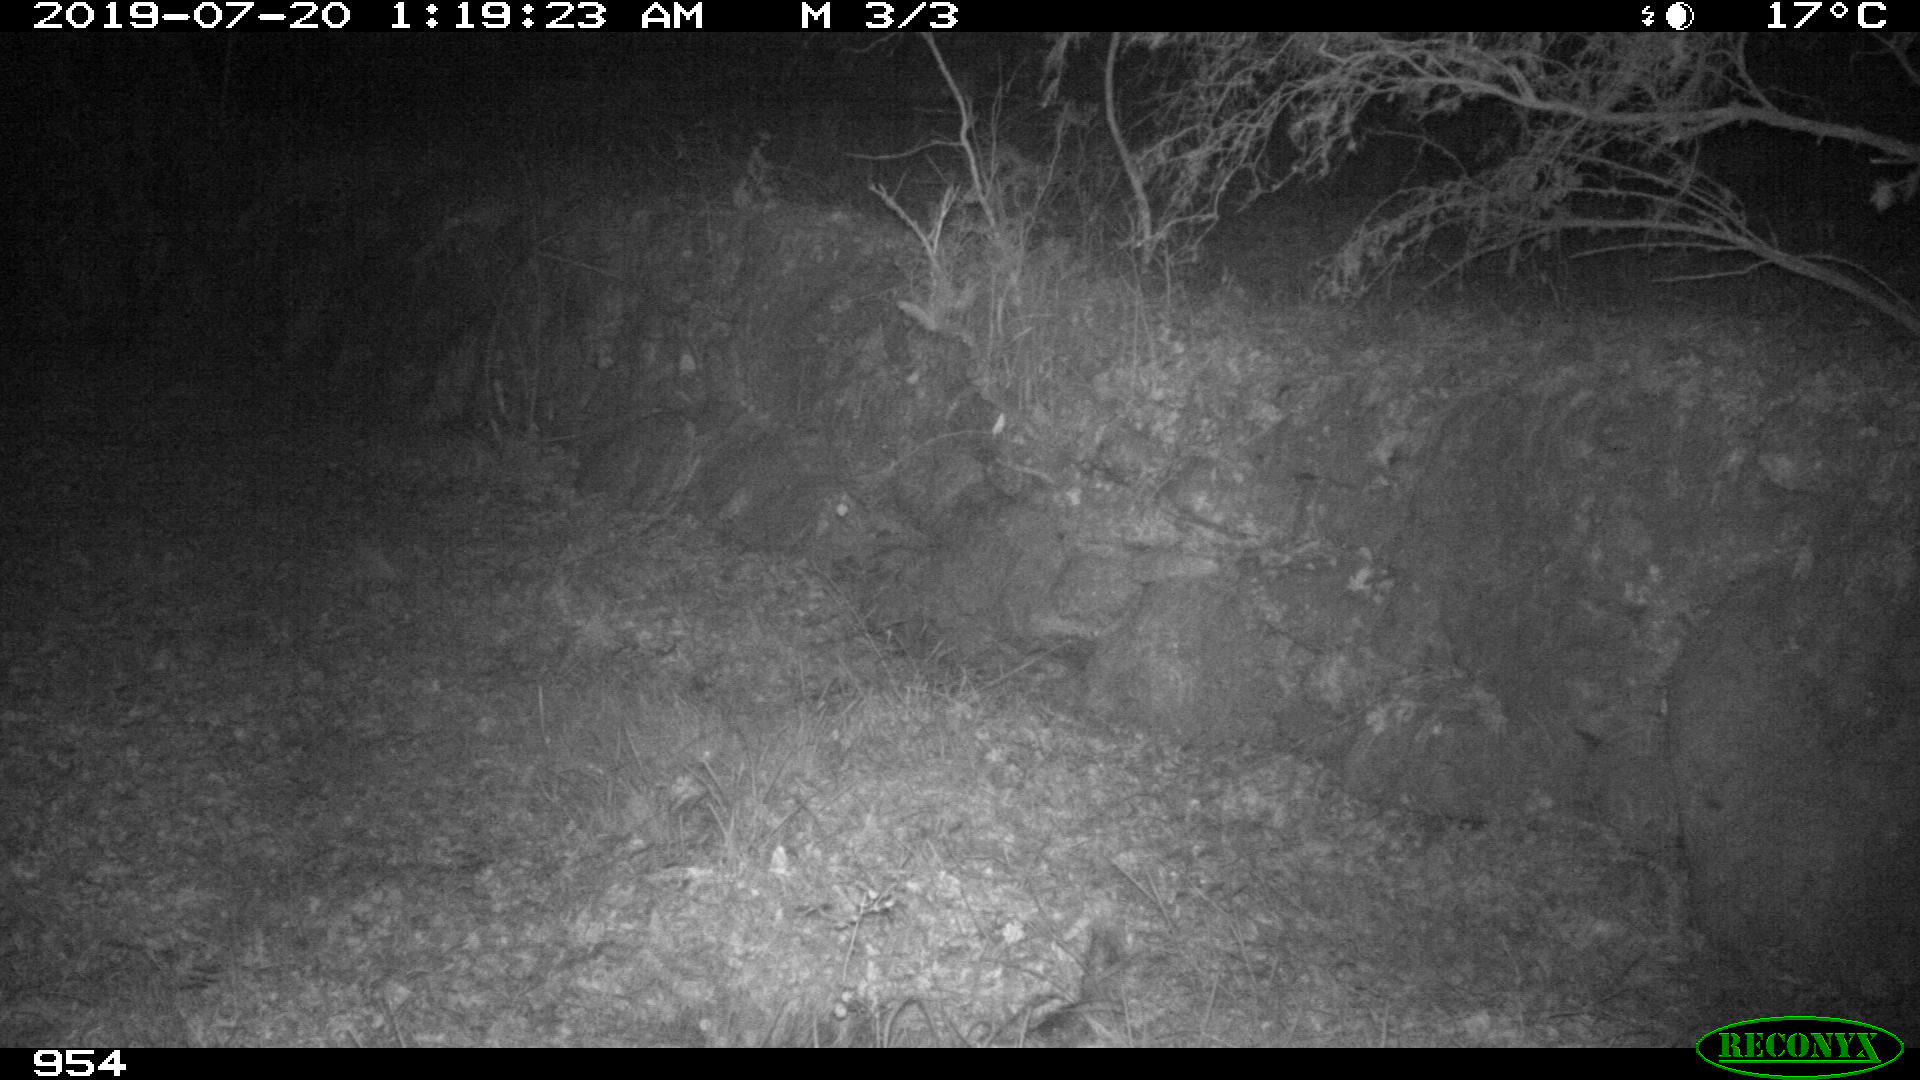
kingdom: Animalia
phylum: Chordata
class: Mammalia
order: Artiodactyla
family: Cervidae
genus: Capreolus
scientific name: Capreolus capreolus
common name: Western roe deer
